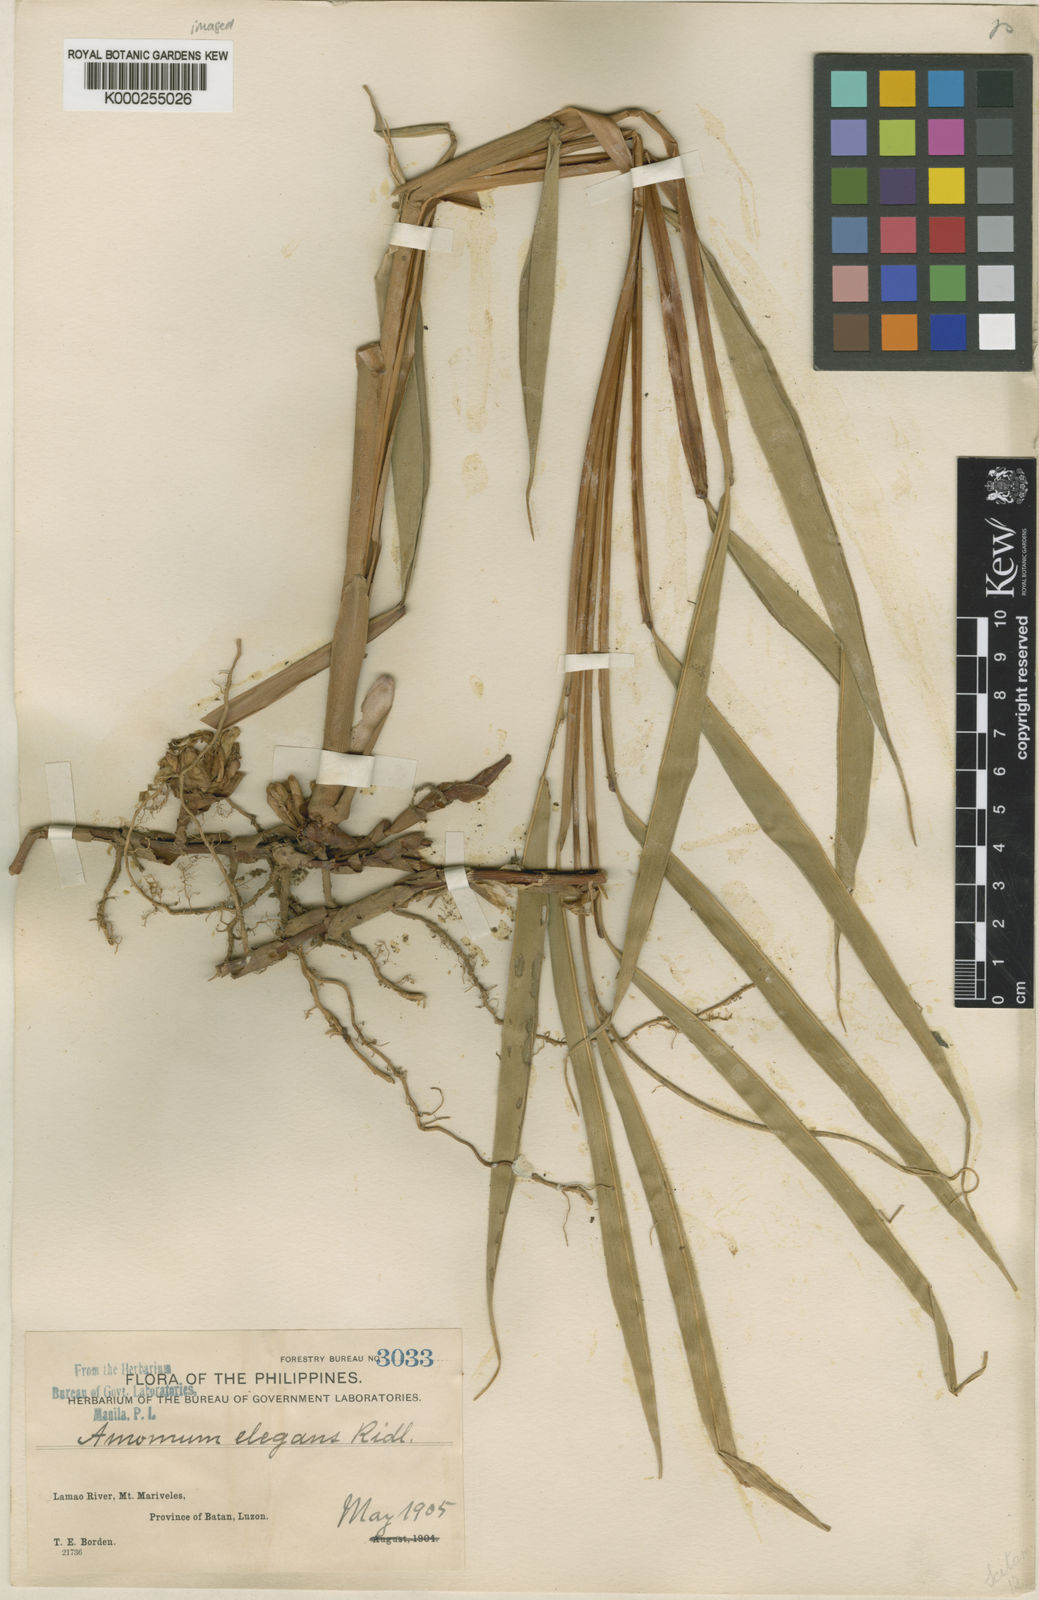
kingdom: Plantae
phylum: Tracheophyta
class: Liliopsida
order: Zingiberales
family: Zingiberaceae
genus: Wurfbainia
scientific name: Wurfbainia elegans
